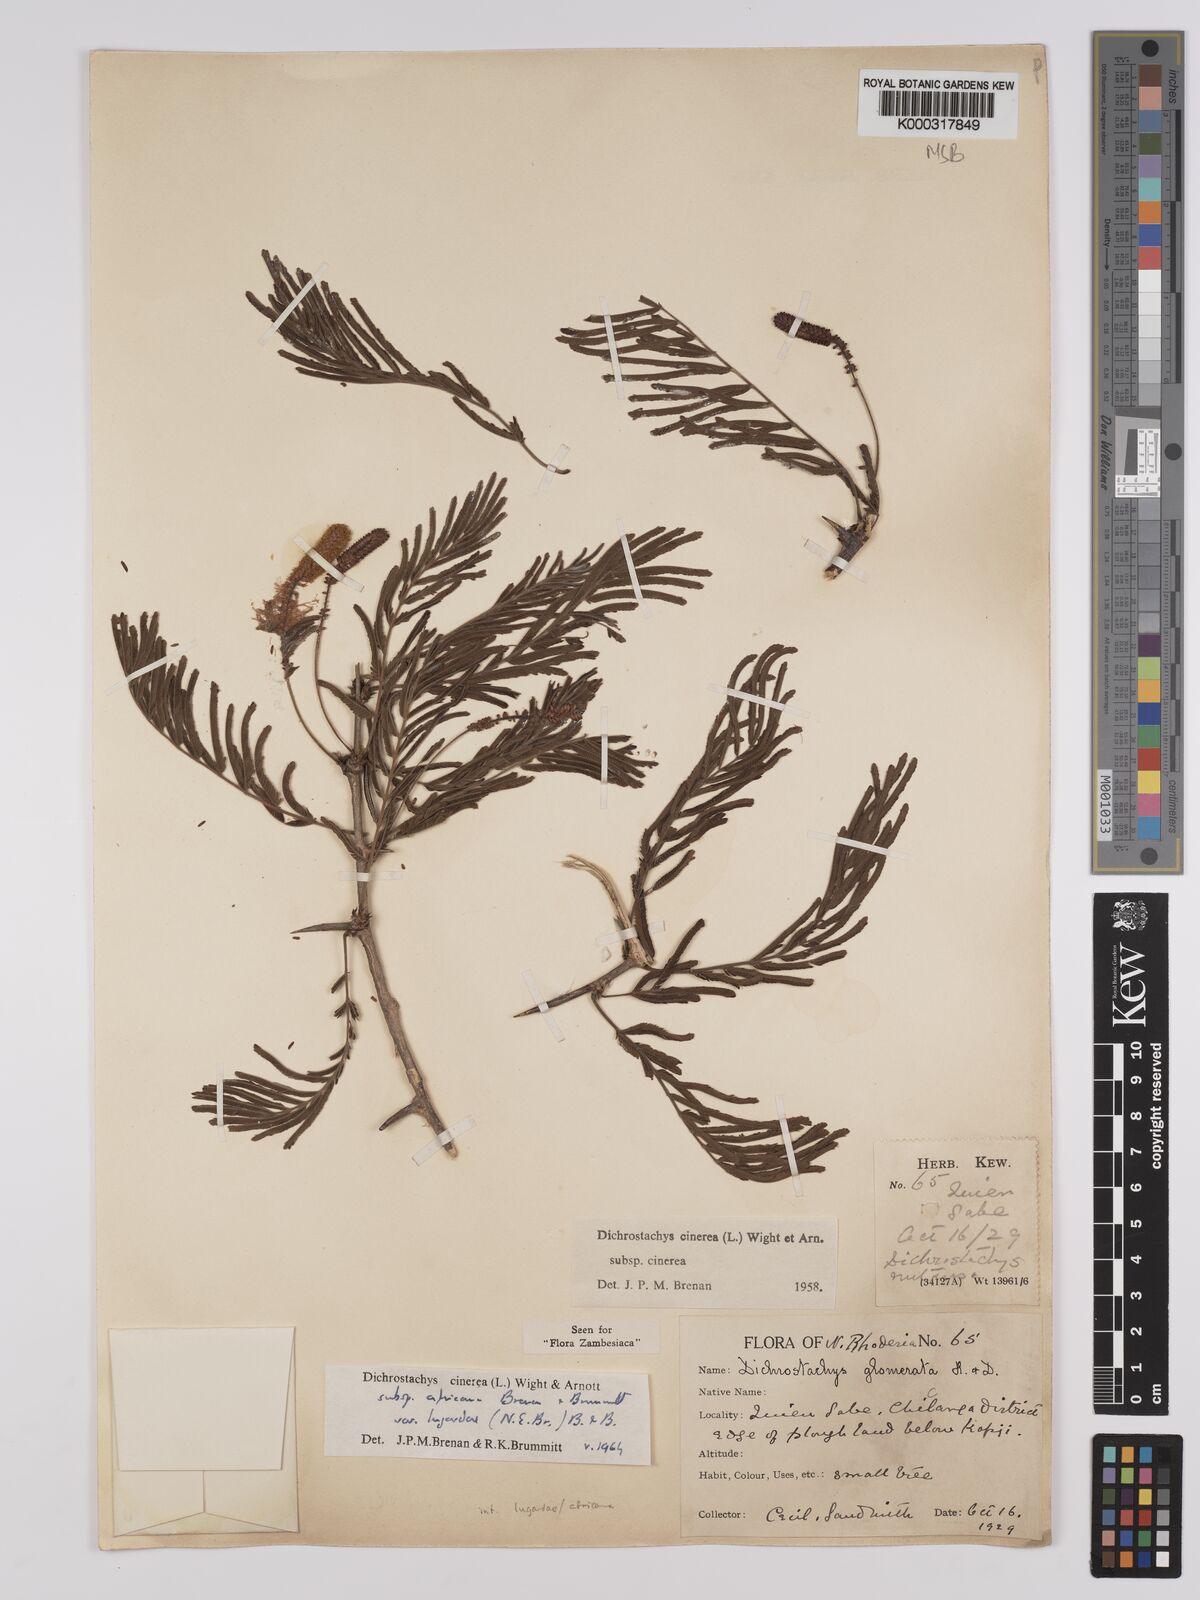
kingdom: Plantae
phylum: Tracheophyta
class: Magnoliopsida
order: Fabales
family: Fabaceae
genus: Dichrostachys
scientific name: Dichrostachys cinerea
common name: Sicklebush
